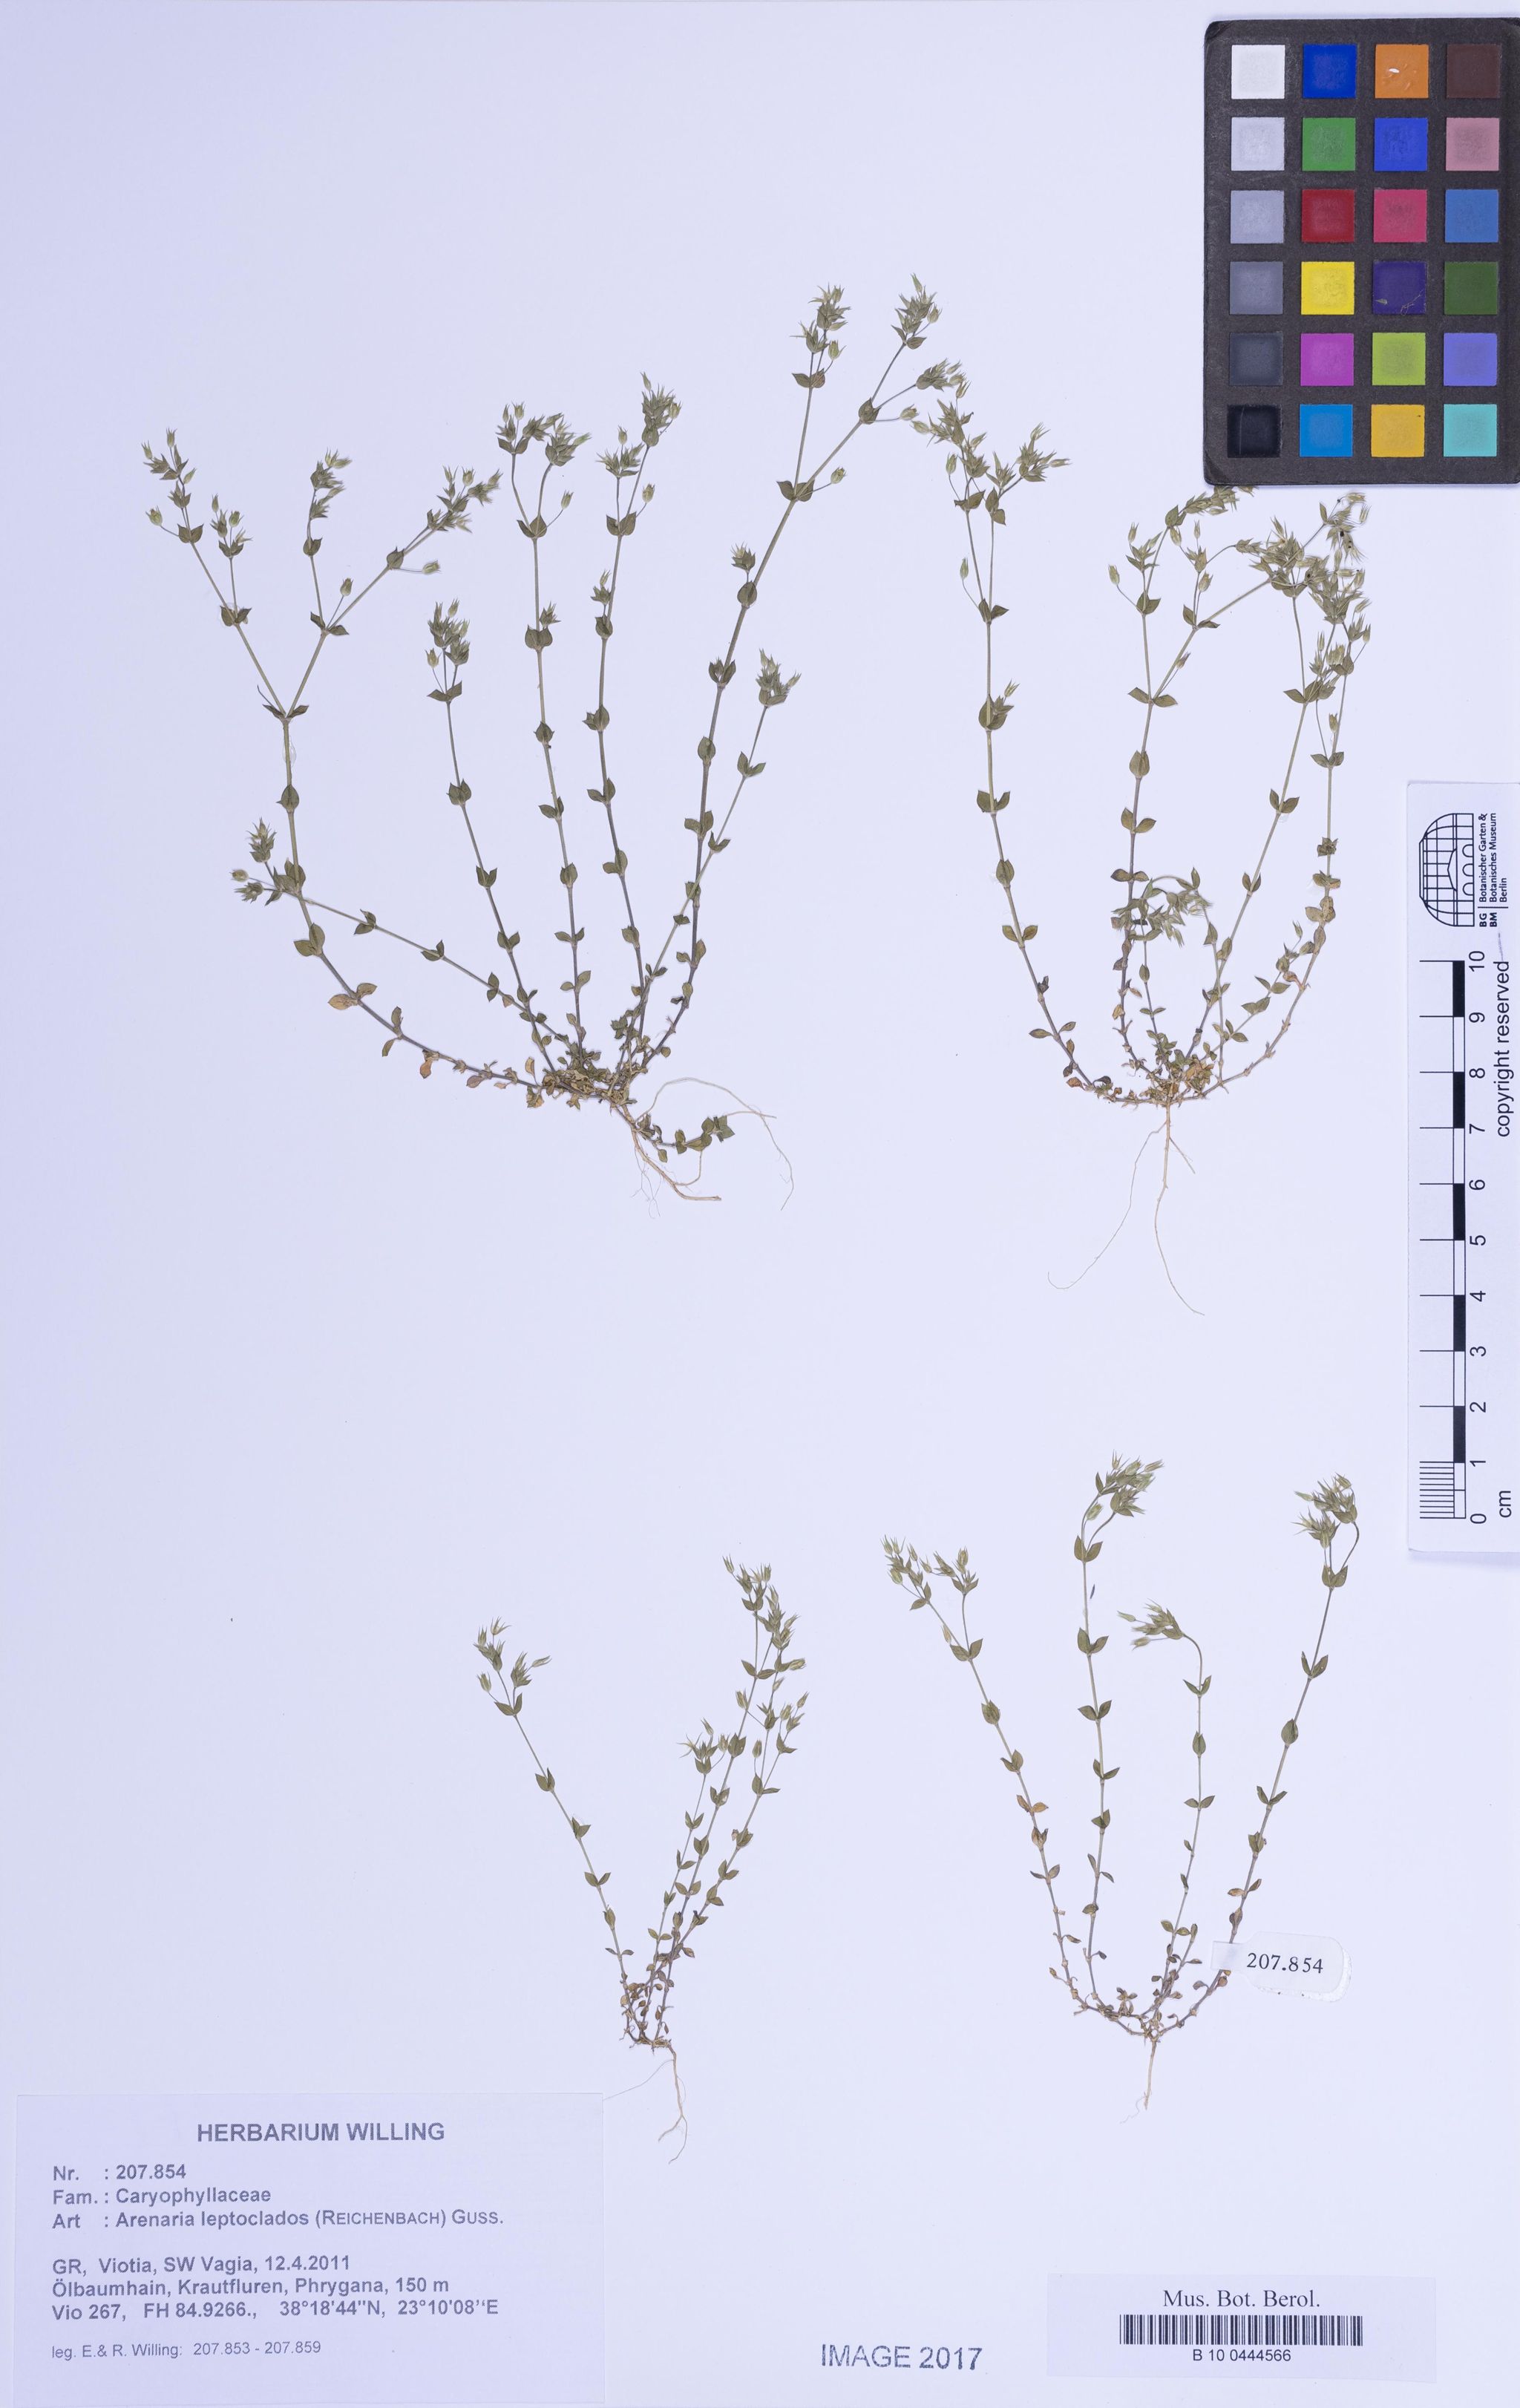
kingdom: Plantae
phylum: Tracheophyta
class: Magnoliopsida
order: Caryophyllales
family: Caryophyllaceae
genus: Arenaria
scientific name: Arenaria leptoclados
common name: Thyme-leaved sandwort
